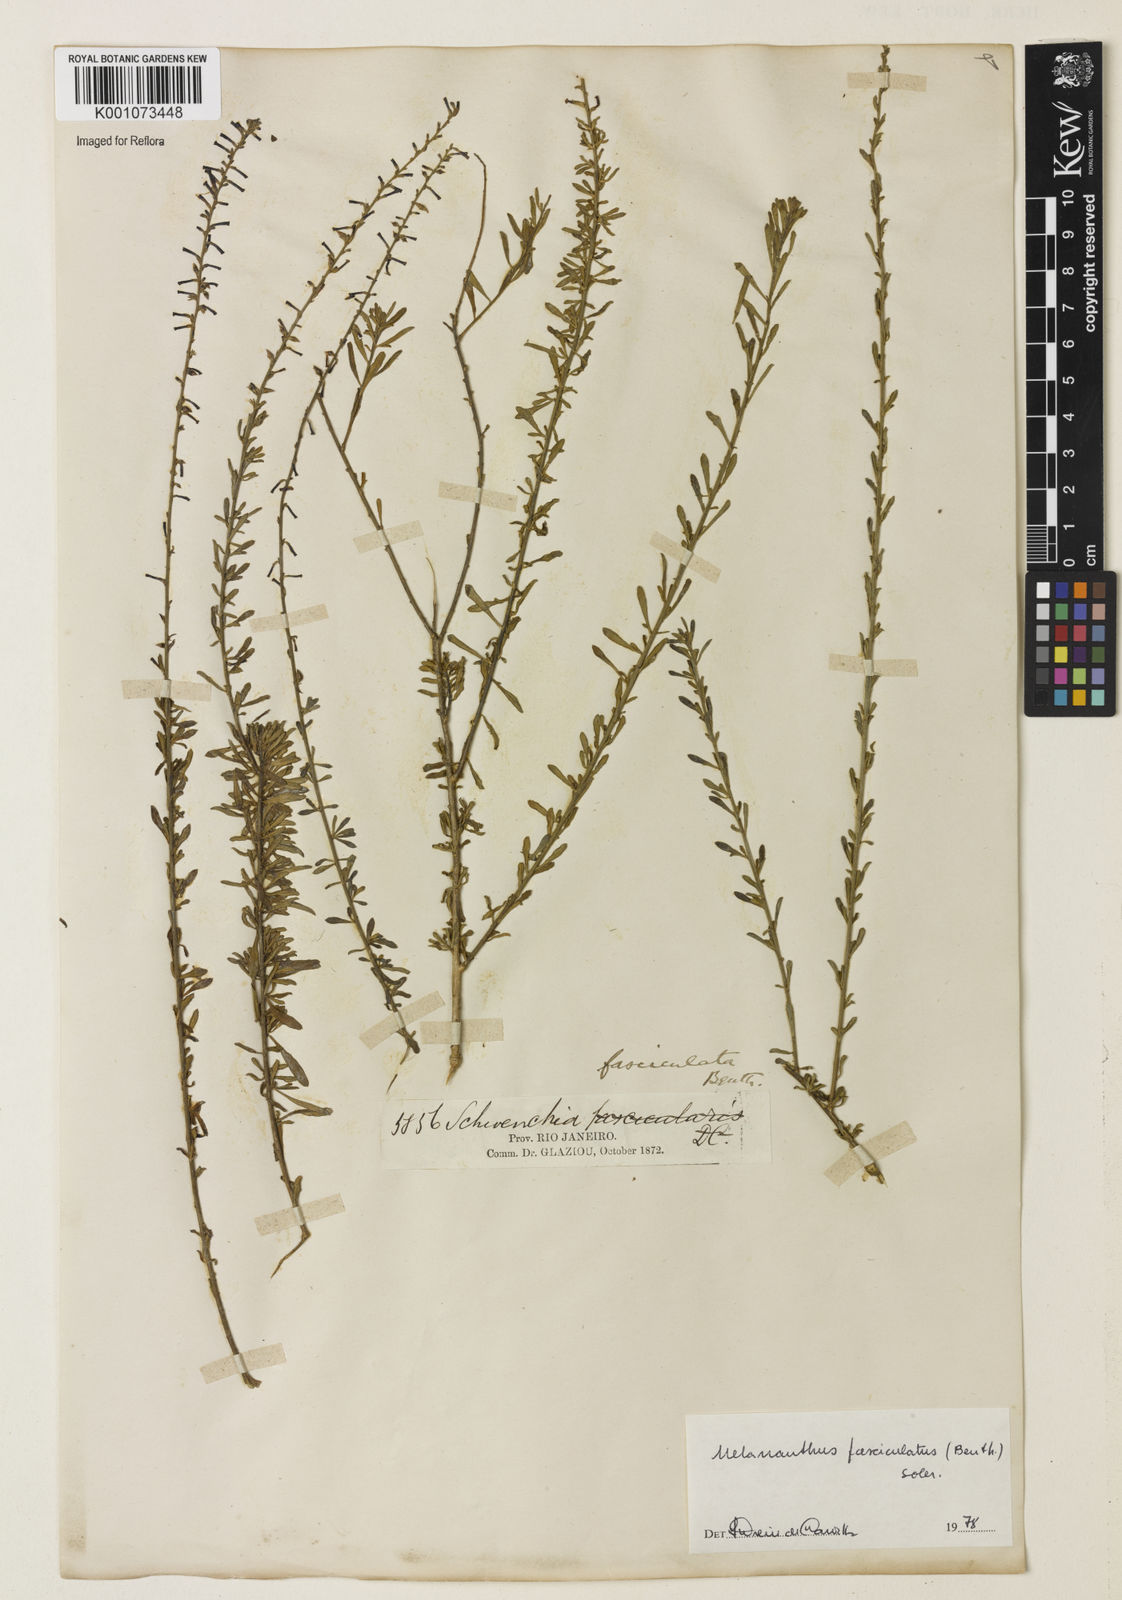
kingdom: Plantae
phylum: Tracheophyta
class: Magnoliopsida
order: Solanales
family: Solanaceae
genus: Melananthus
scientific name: Melananthus fasciculatus
